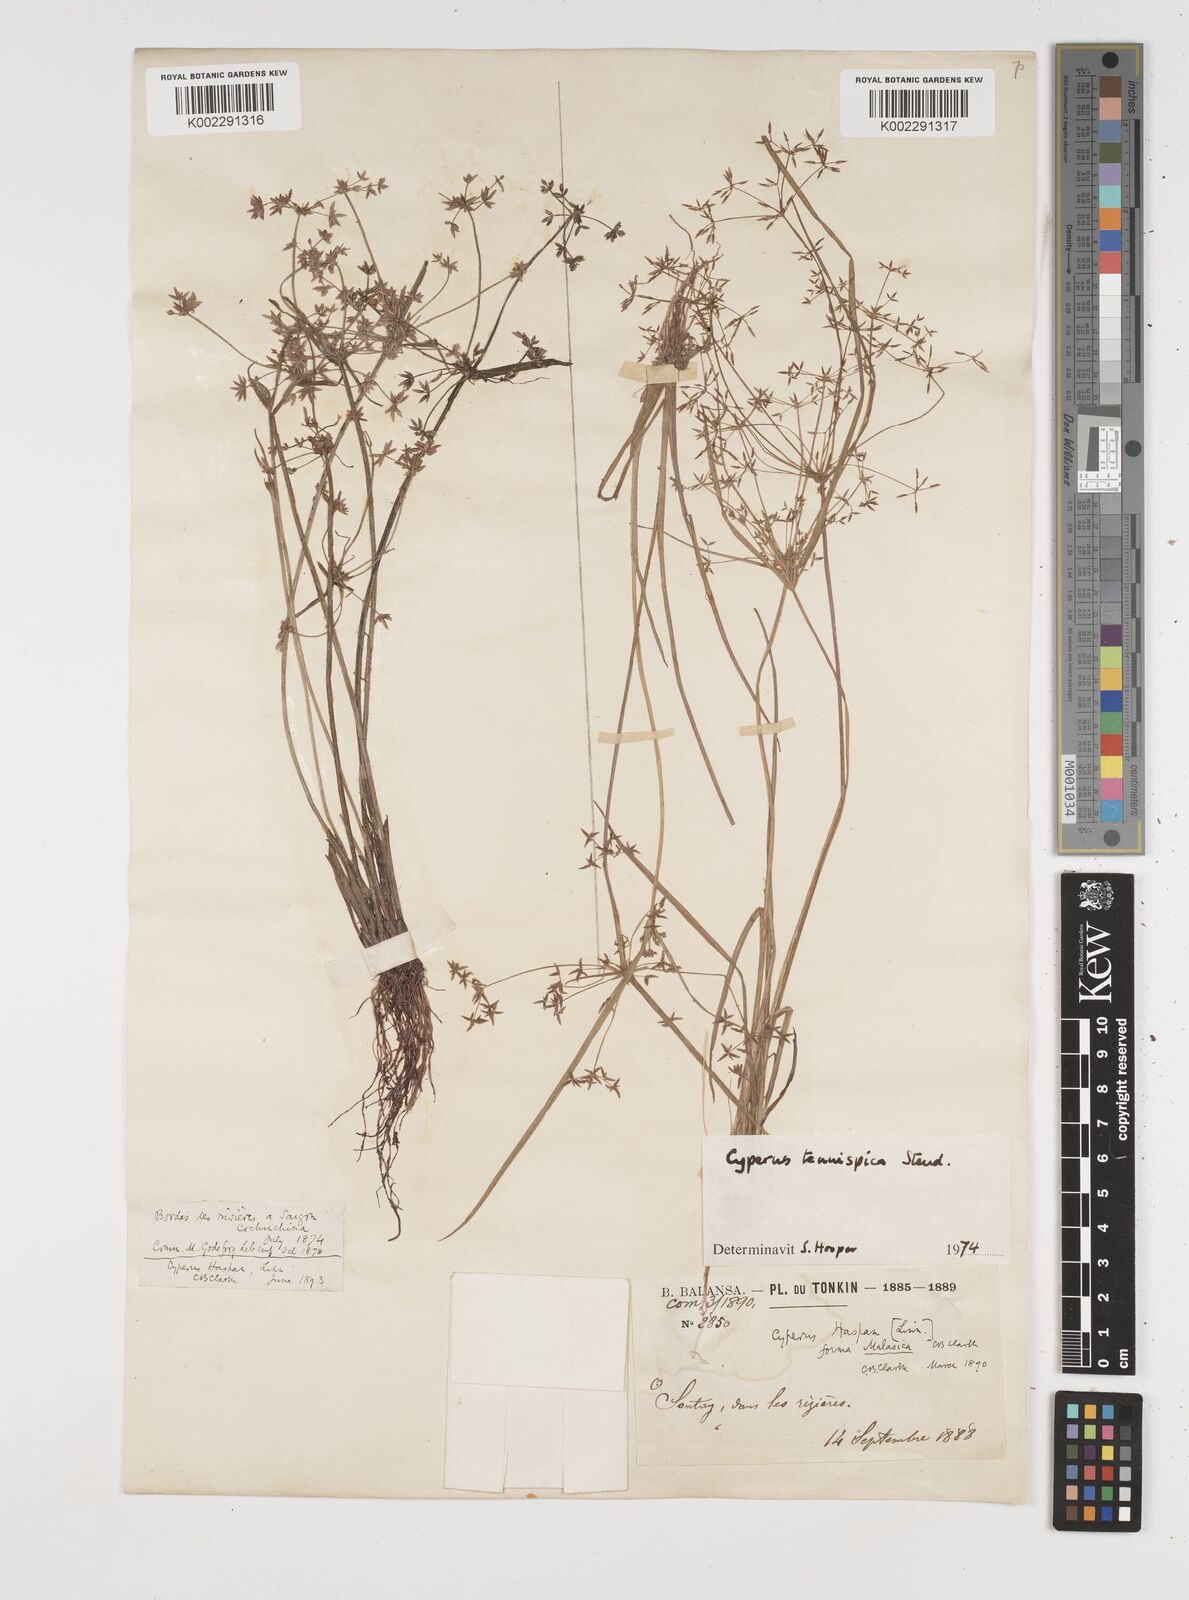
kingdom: Plantae
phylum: Tracheophyta
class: Liliopsida
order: Poales
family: Cyperaceae
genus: Cyperus
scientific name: Cyperus tenuispica
